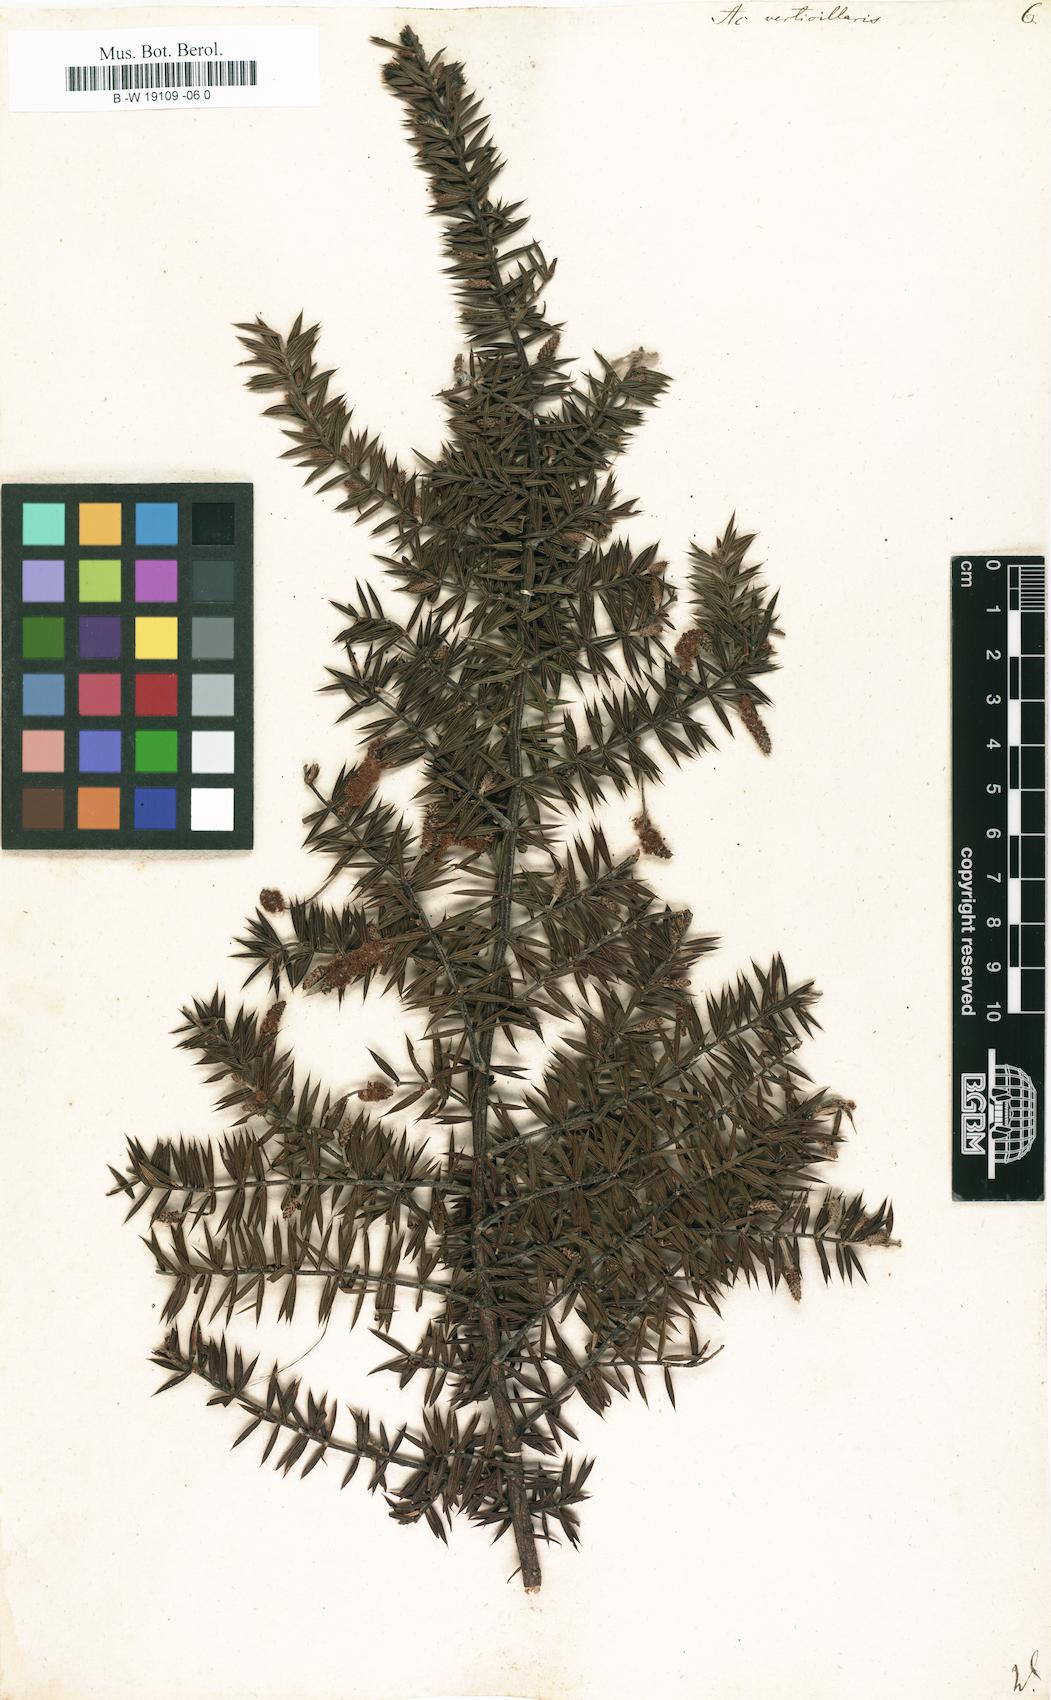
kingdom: Plantae
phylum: Tracheophyta
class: Magnoliopsida
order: Fabales
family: Fabaceae
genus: Acacia
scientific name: Acacia verticillata
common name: Prickly moses
